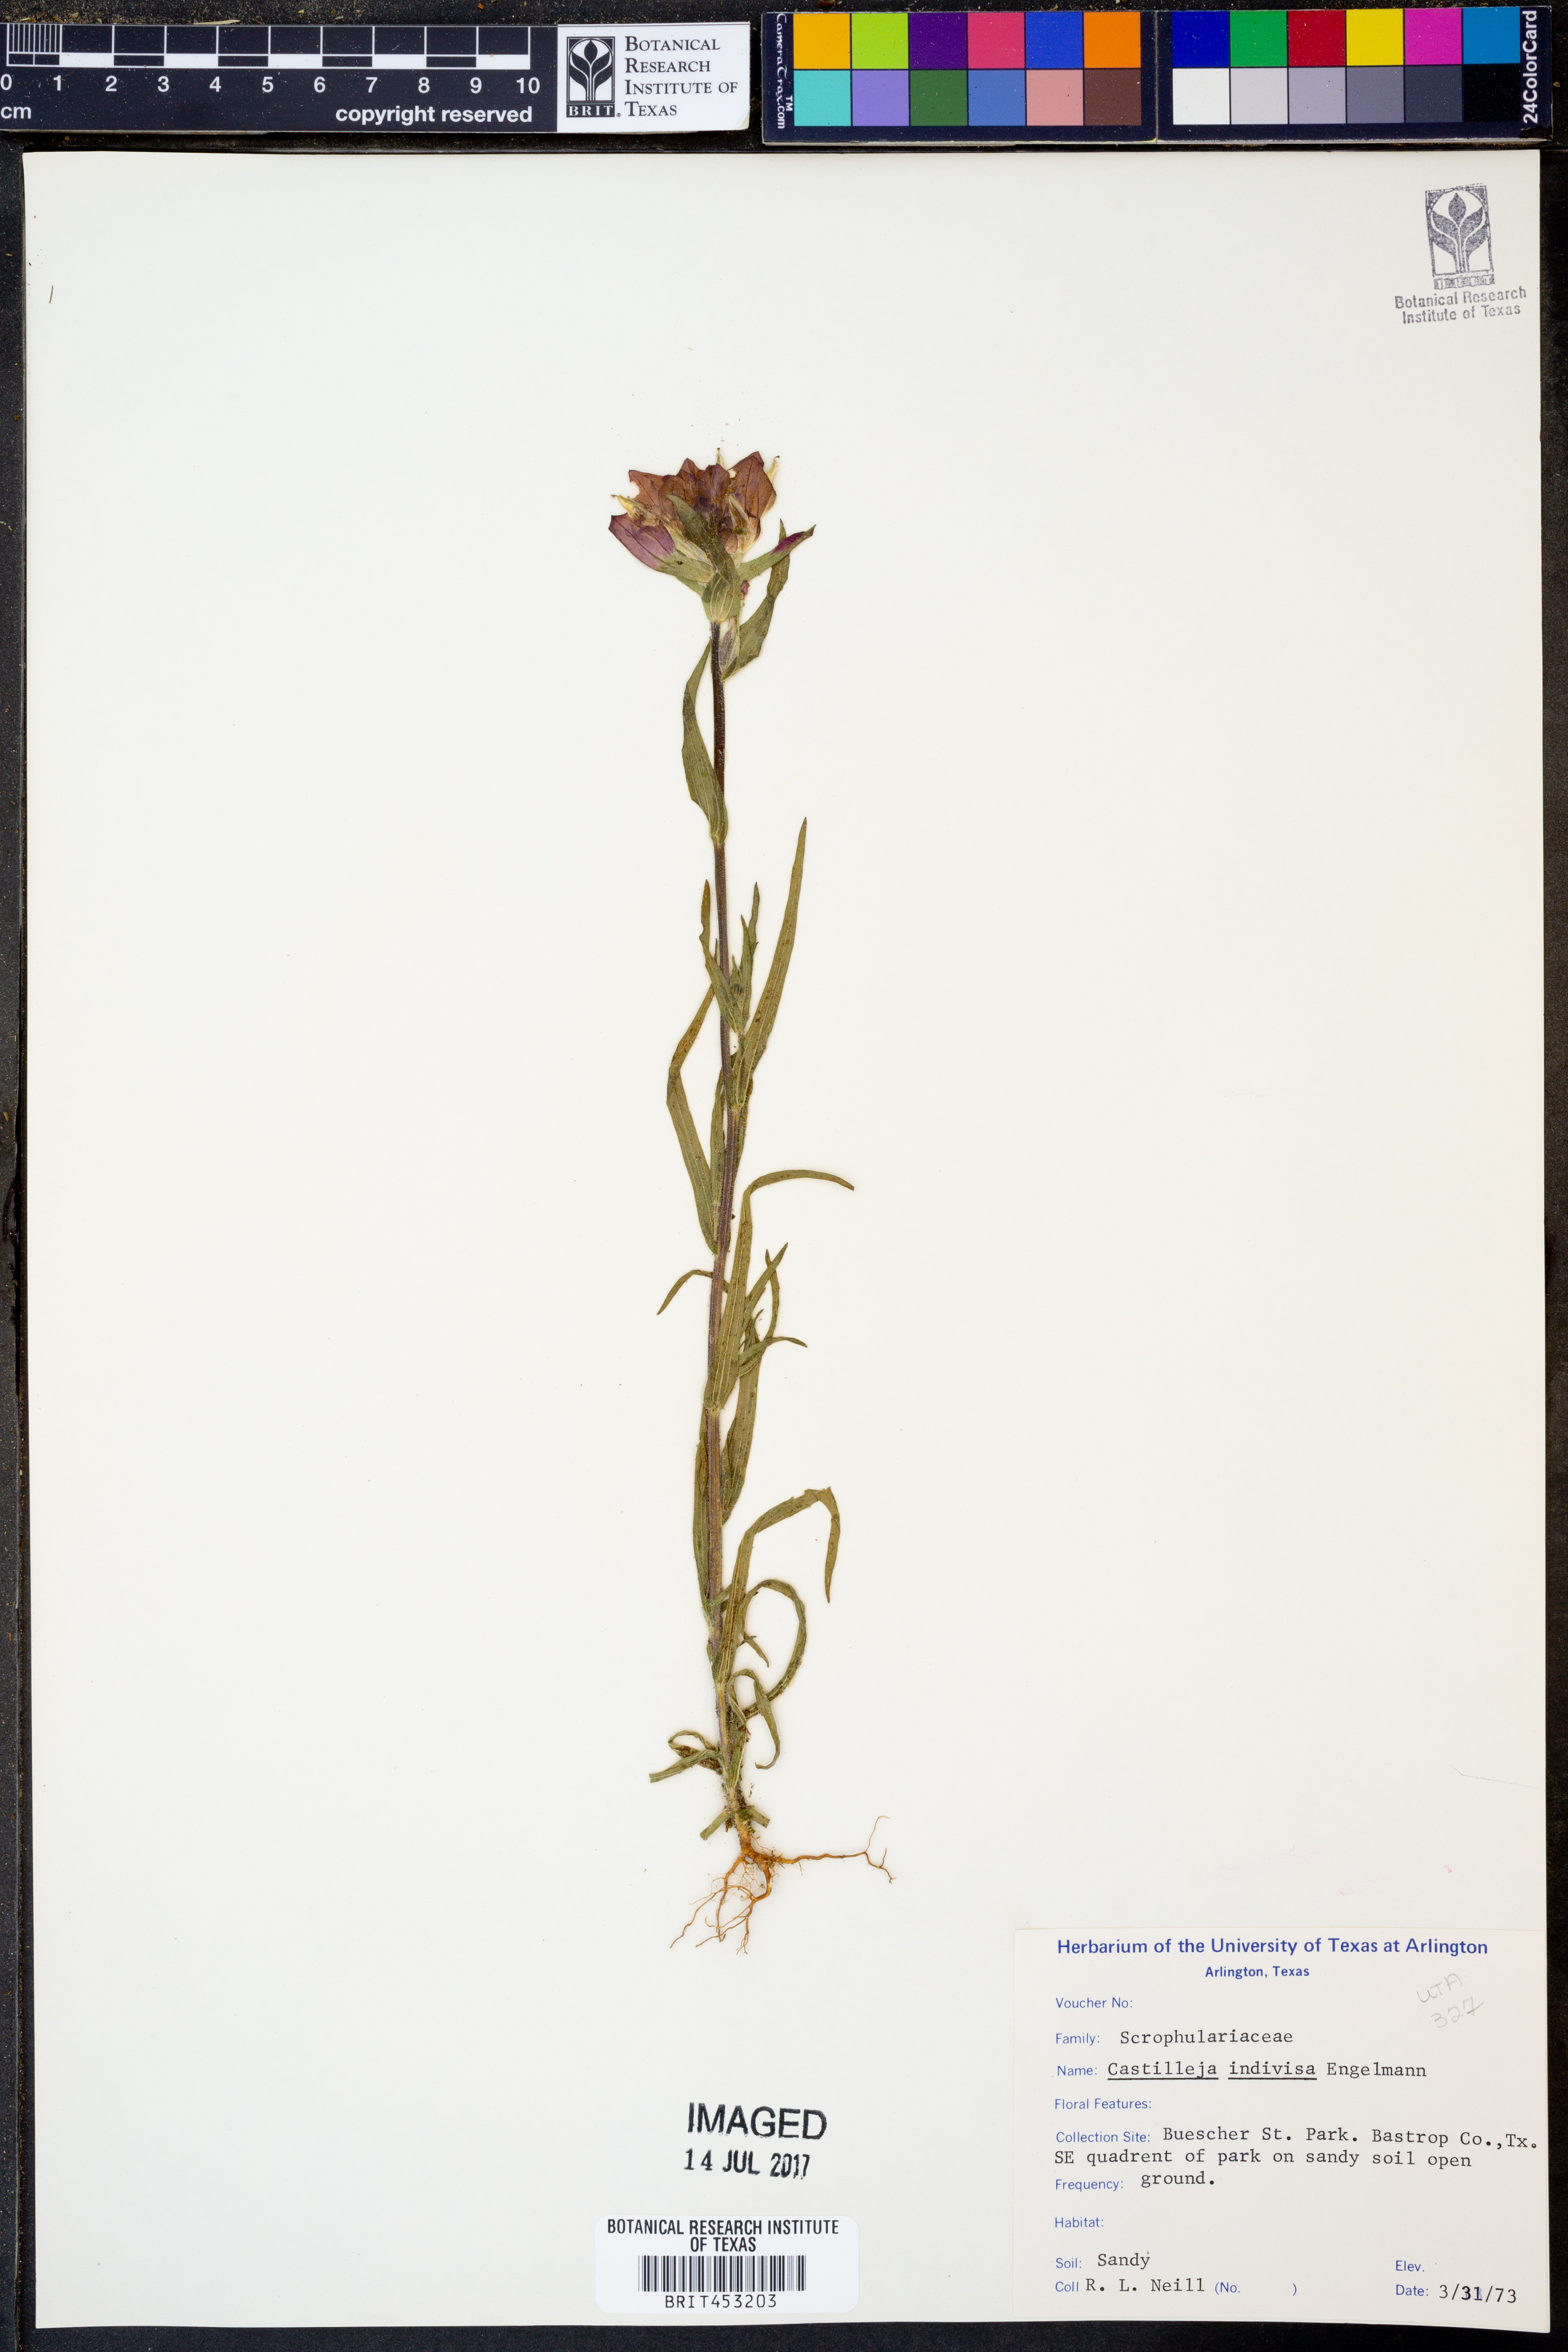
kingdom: Plantae
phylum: Tracheophyta
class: Magnoliopsida
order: Lamiales
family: Orobanchaceae
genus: Castilleja
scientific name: Castilleja indivisa
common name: Texas paintbrush
